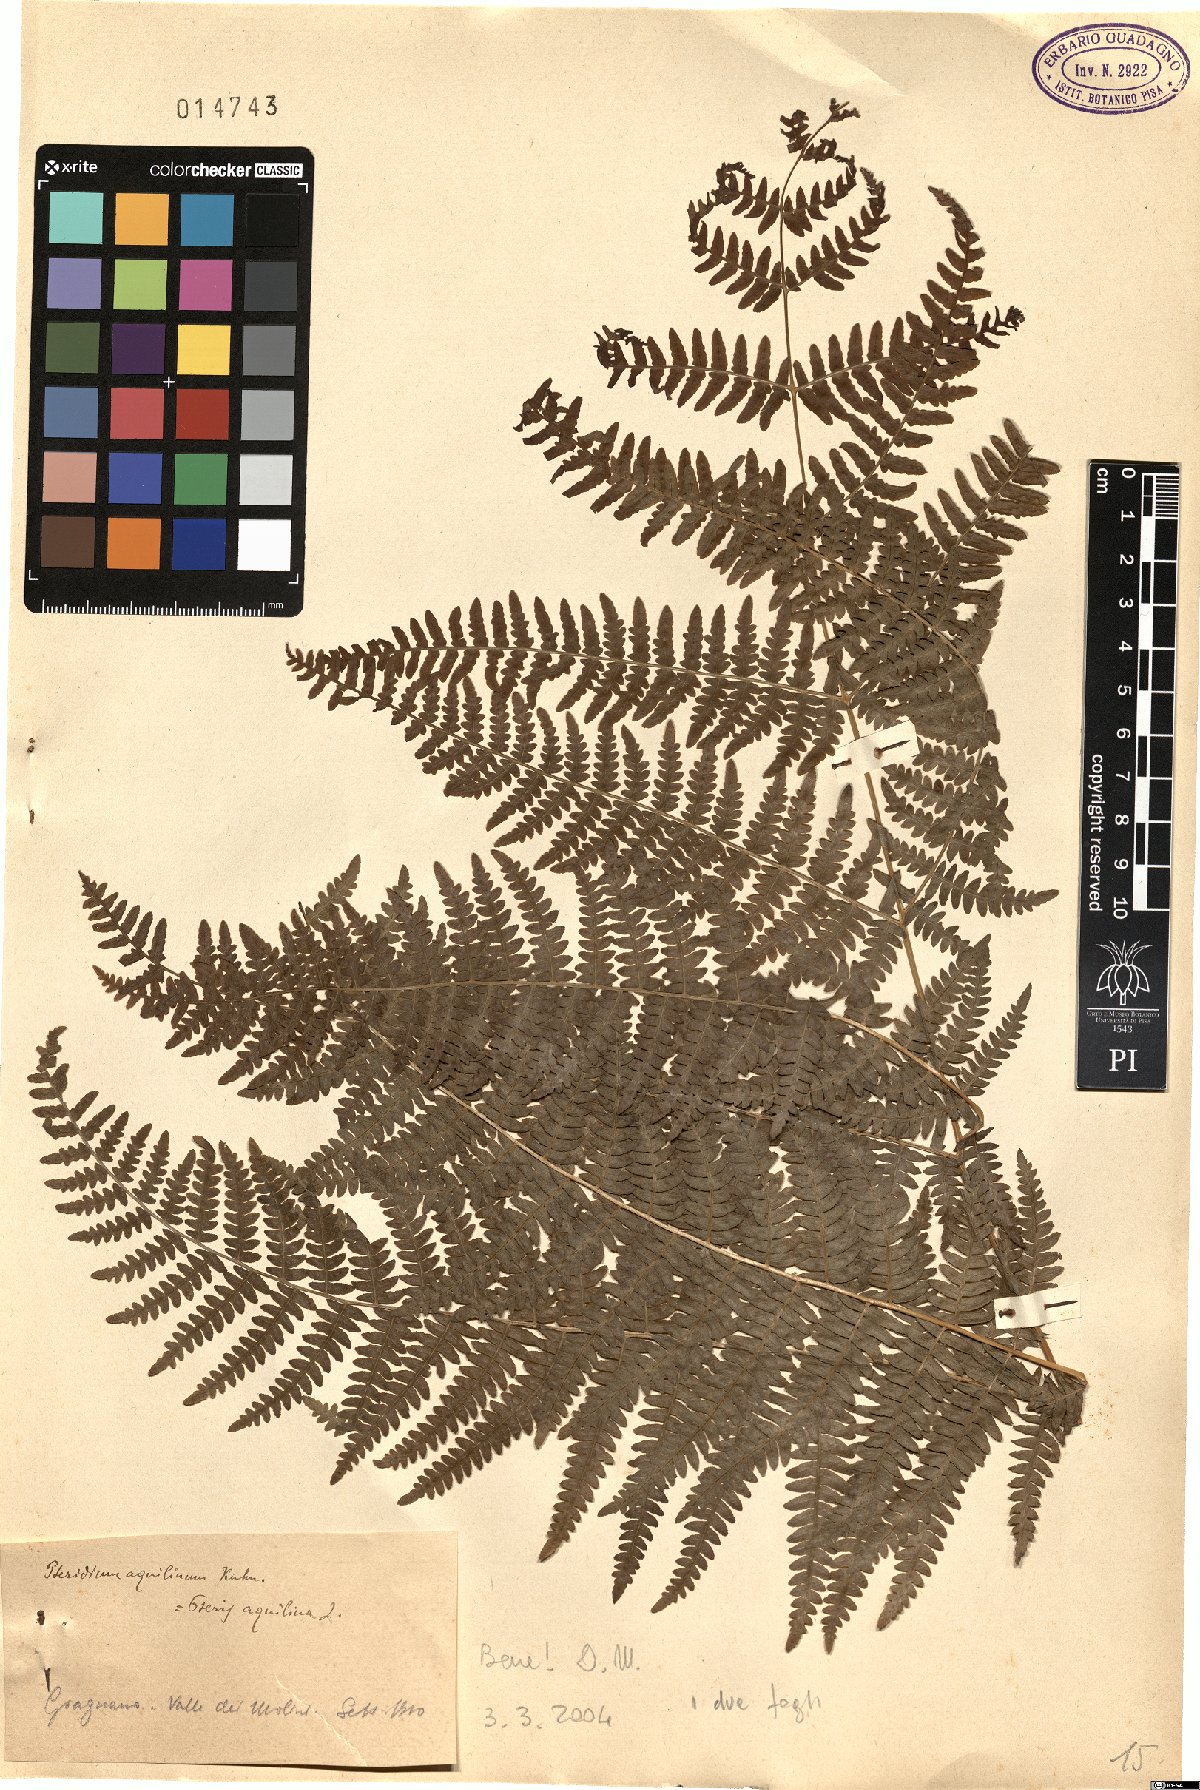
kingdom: Plantae
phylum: Tracheophyta
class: Polypodiopsida
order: Polypodiales
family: Dennstaedtiaceae
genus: Pteridium
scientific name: Pteridium aquilinum
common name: Bracken
